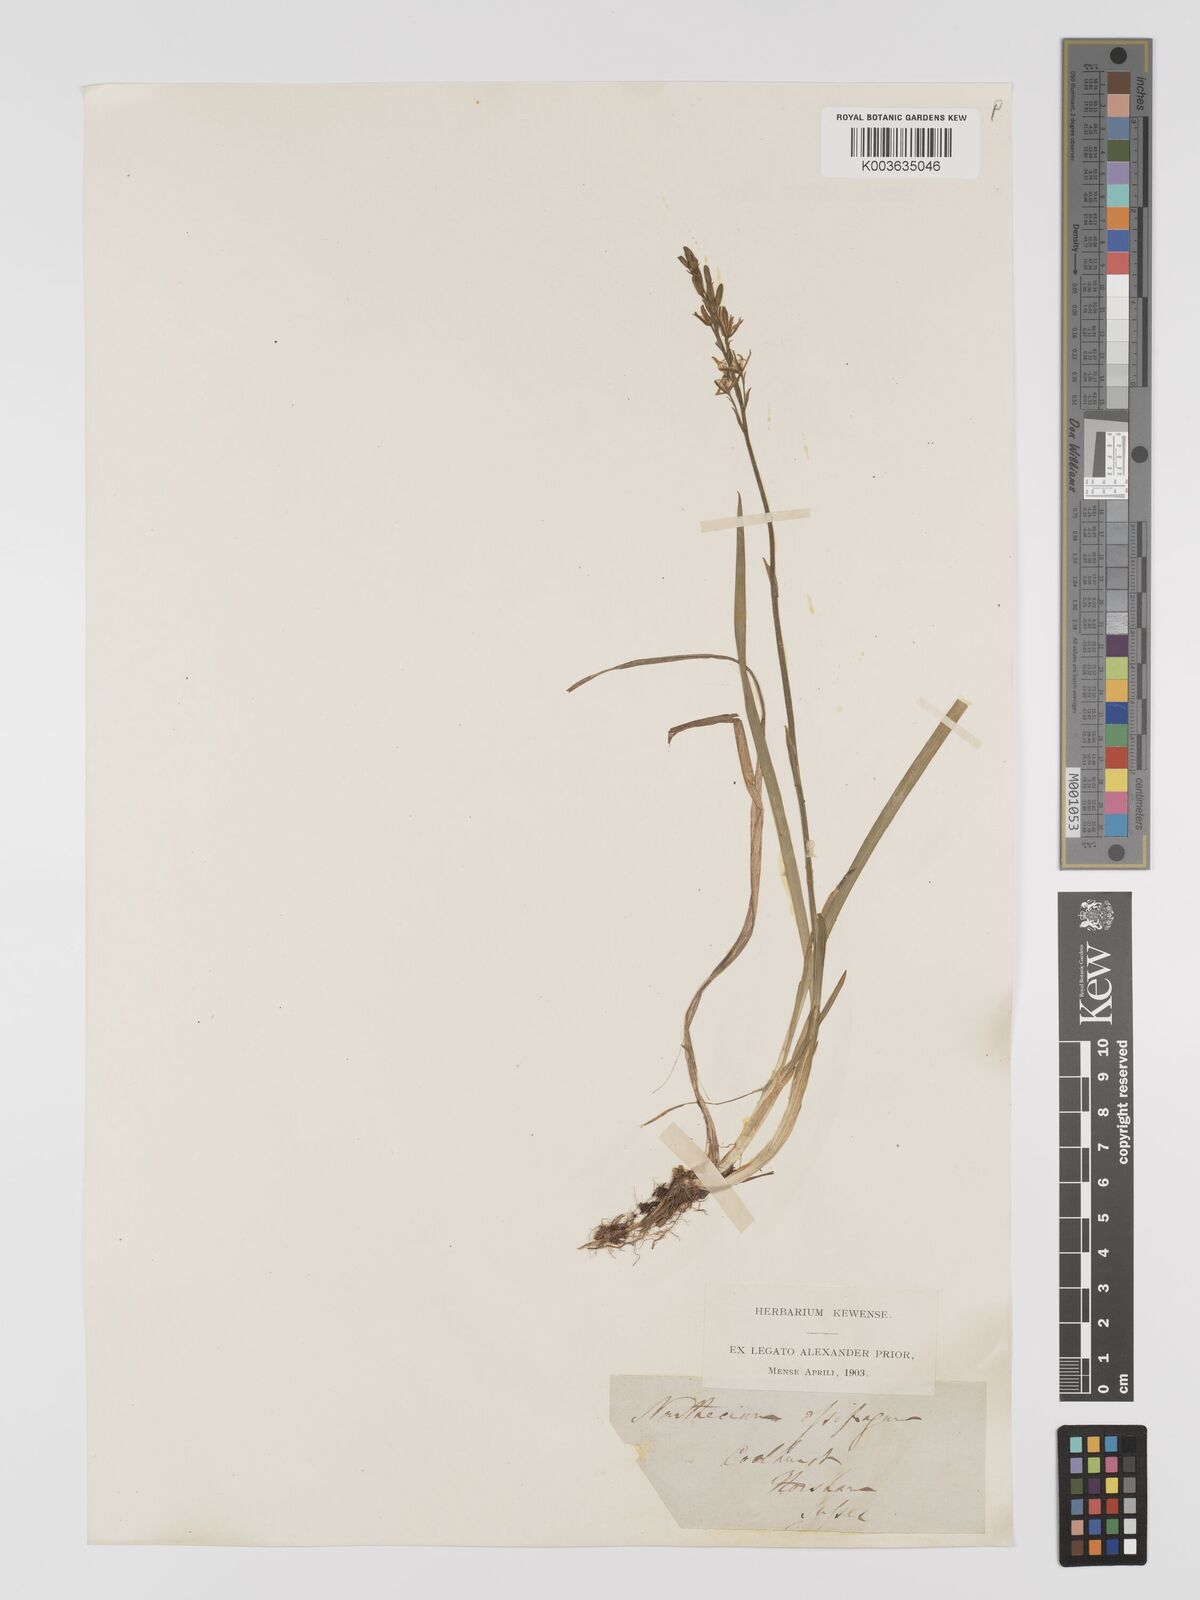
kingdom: Plantae
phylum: Tracheophyta
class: Liliopsida
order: Dioscoreales
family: Nartheciaceae
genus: Narthecium
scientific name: Narthecium
